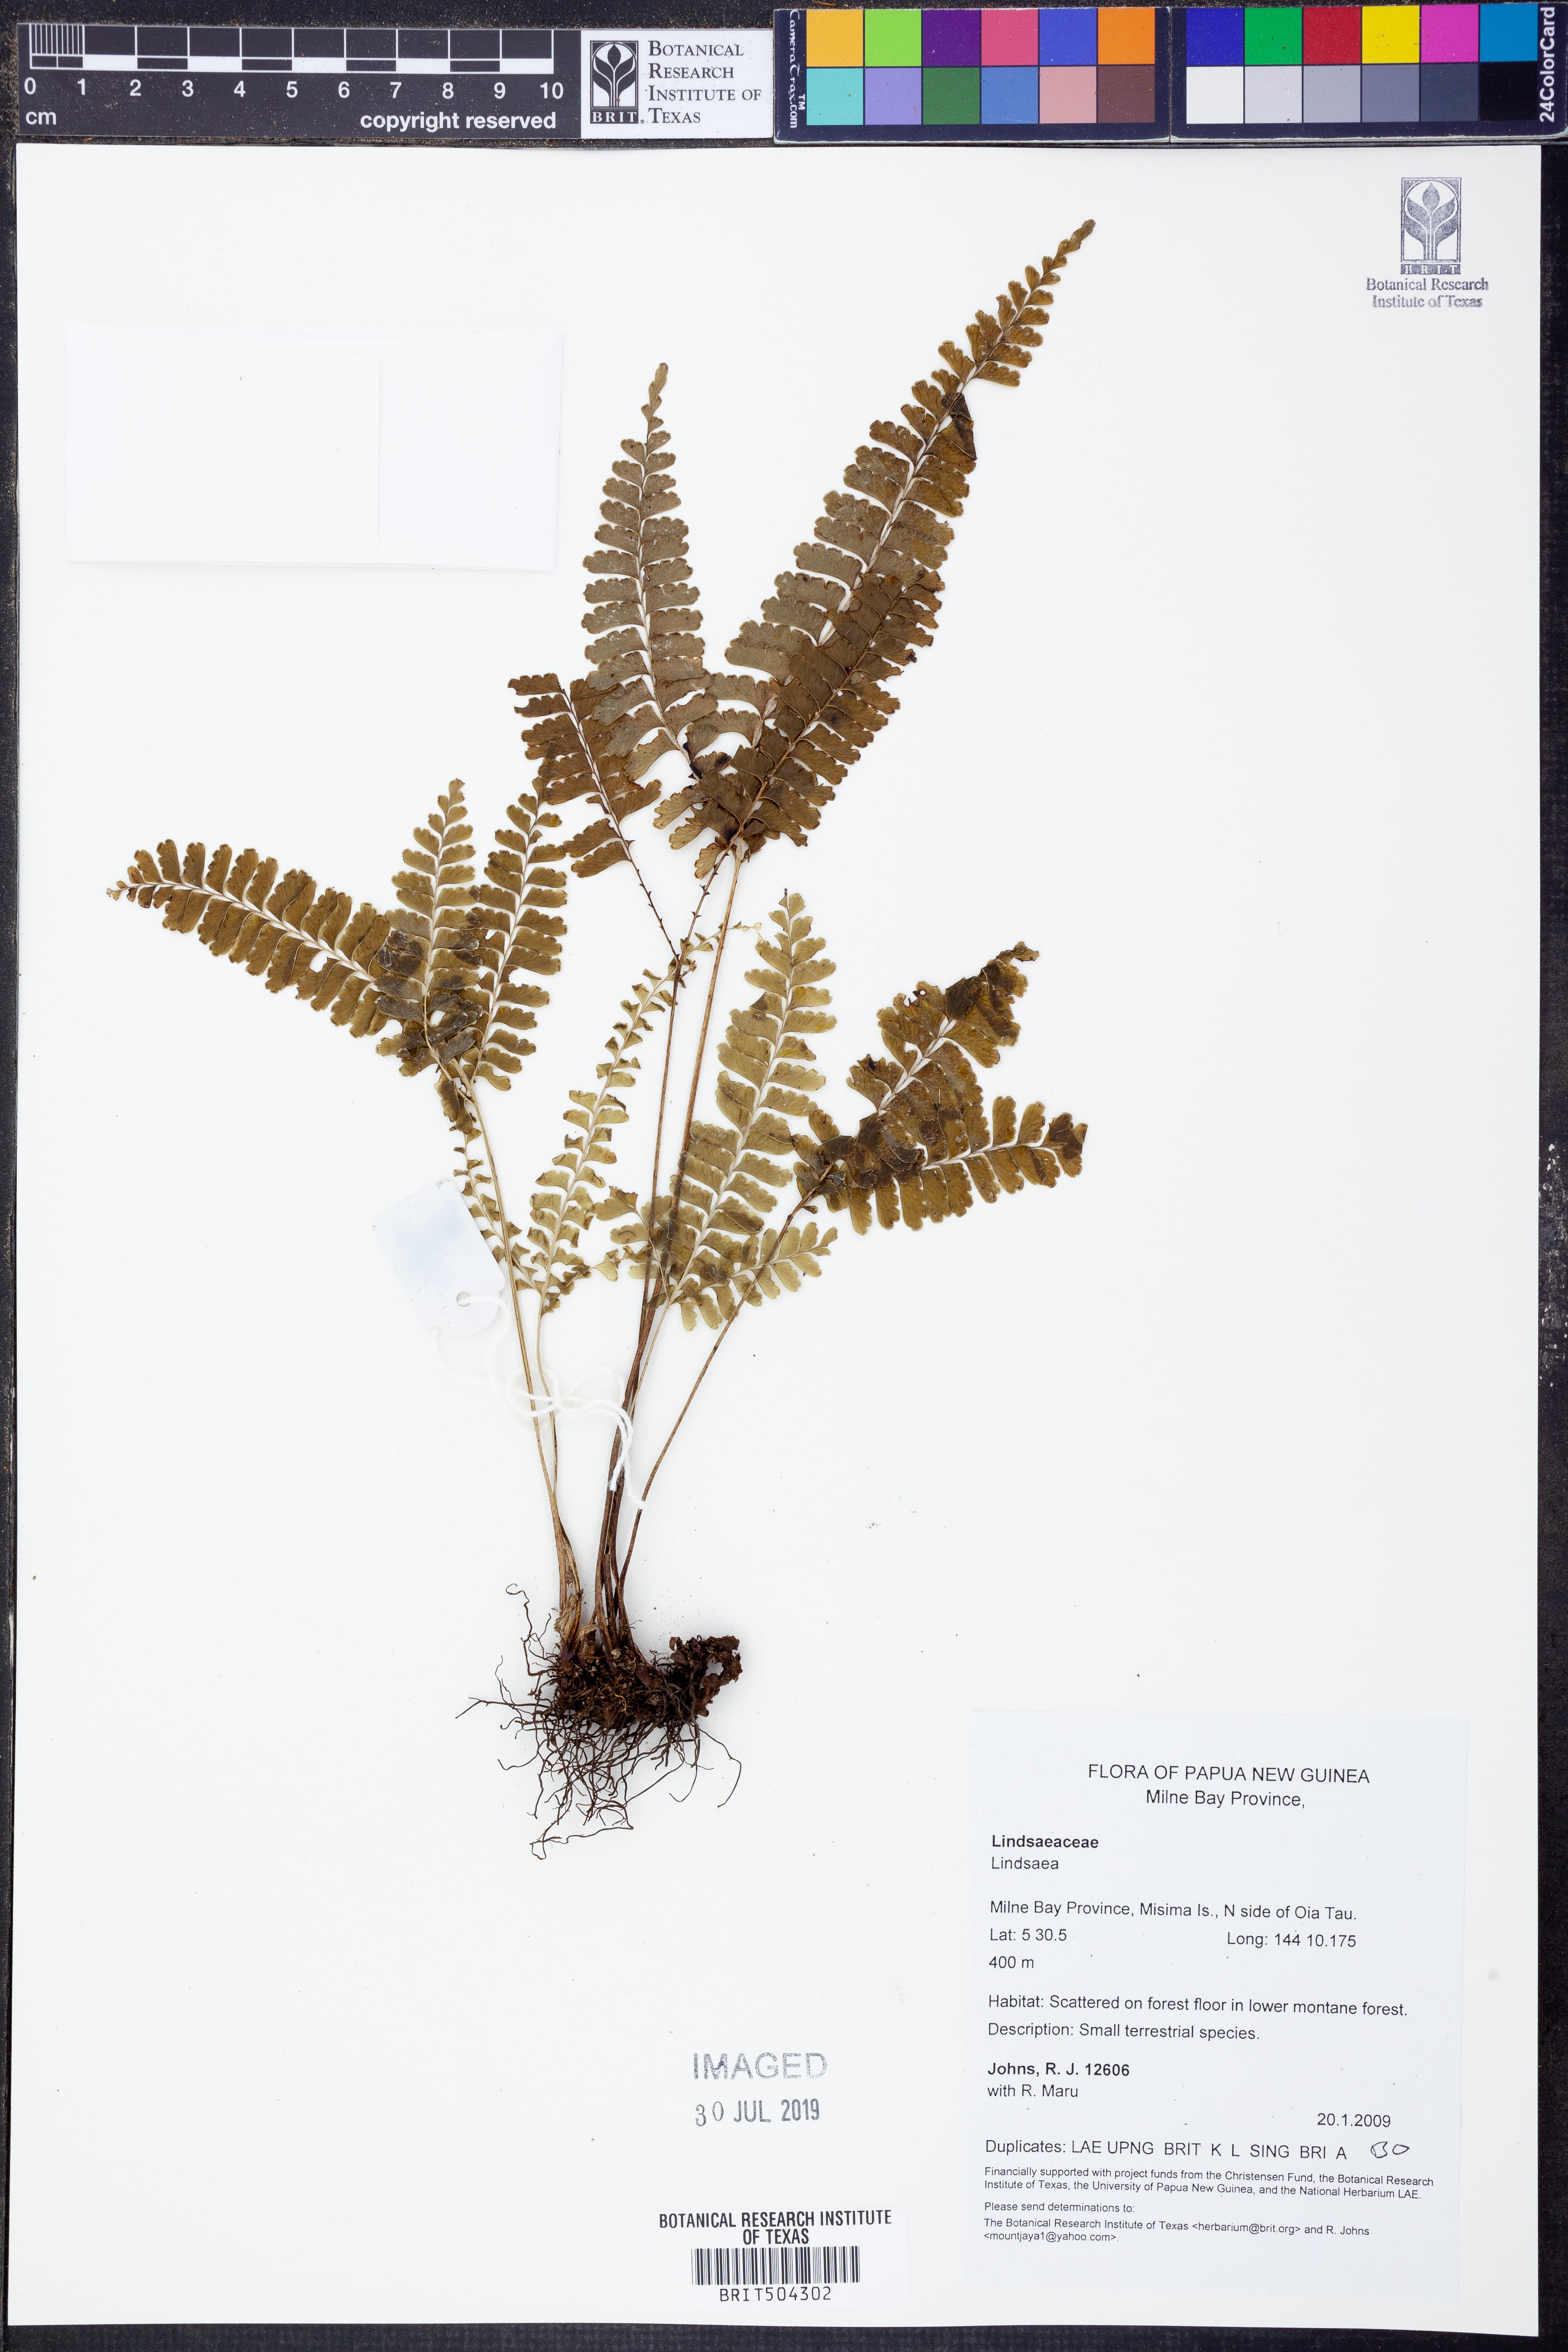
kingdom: Plantae
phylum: Tracheophyta
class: Polypodiopsida
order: Polypodiales
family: Lindsaeaceae
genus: Lindsaea
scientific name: Lindsaea
